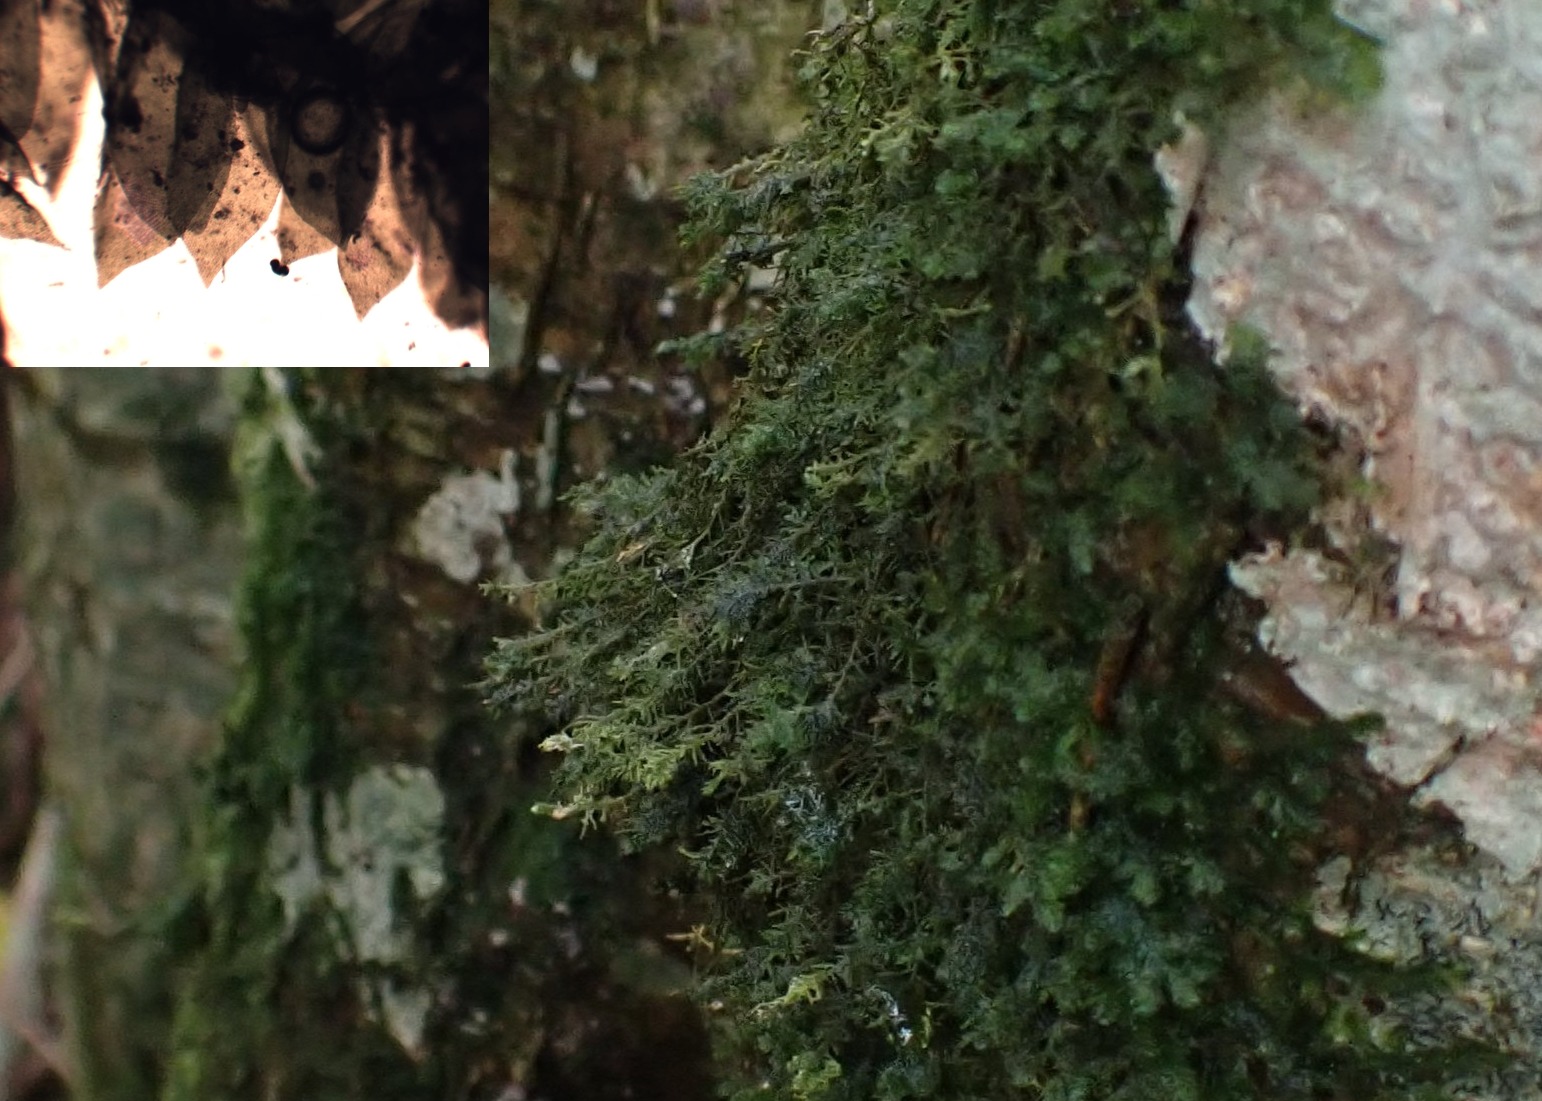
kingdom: Plantae
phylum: Bryophyta
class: Bryopsida
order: Hypnales
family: Neckeraceae
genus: Alleniella
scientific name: Alleniella complanata
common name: Almindelig fladmos
